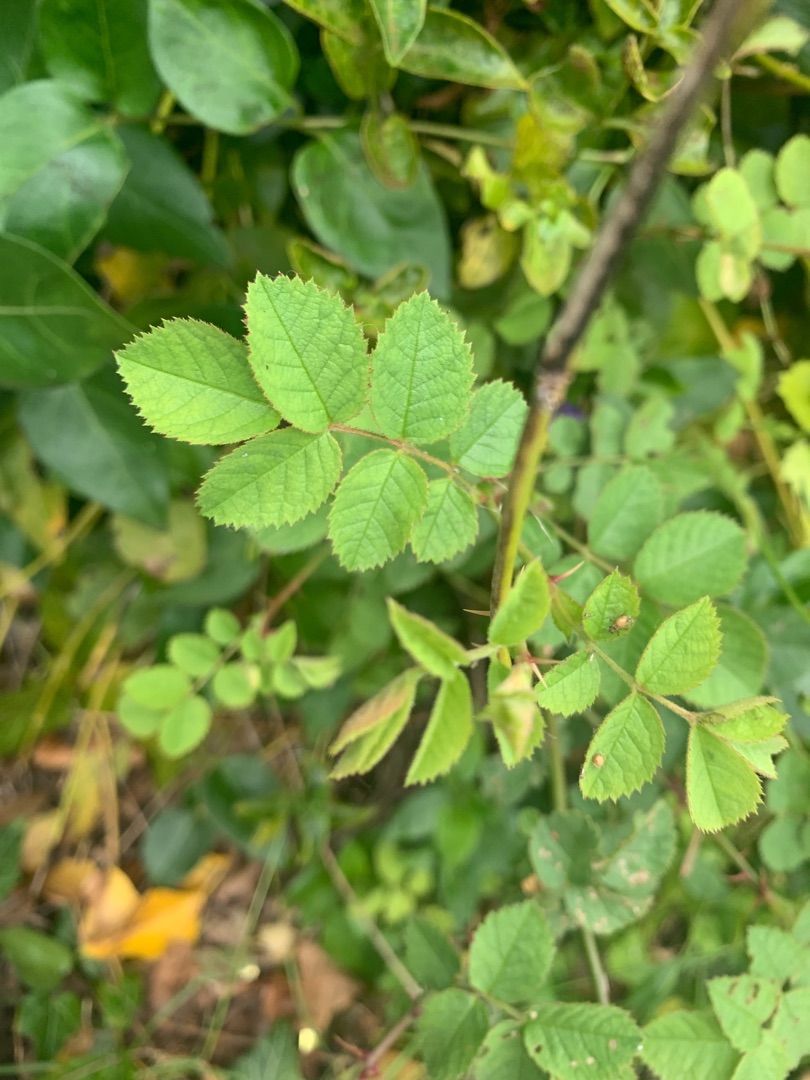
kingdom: Plantae
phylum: Tracheophyta
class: Magnoliopsida
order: Rosales
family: Rosaceae
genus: Rosa
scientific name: Rosa
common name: Roseslægten
